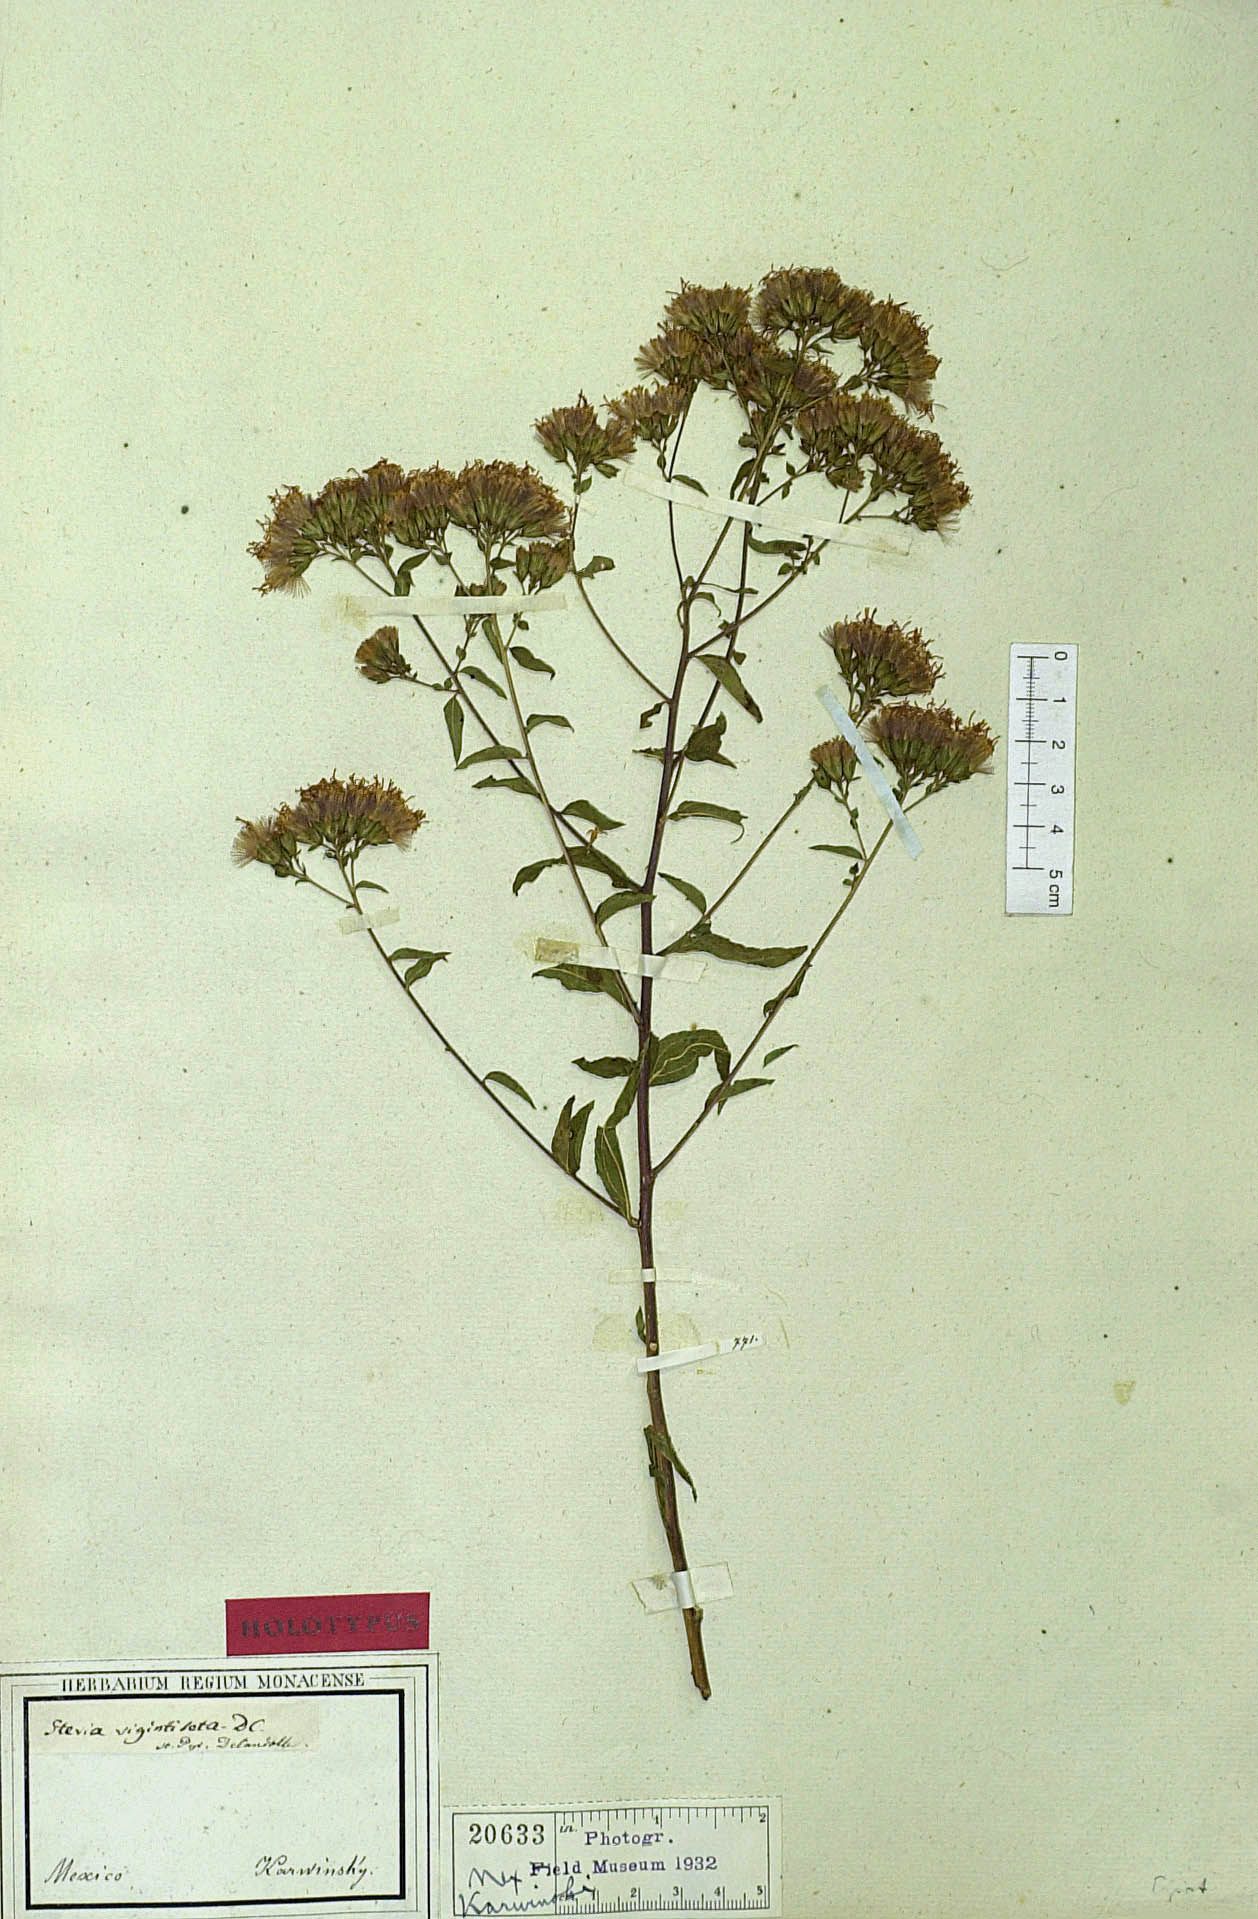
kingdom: Plantae
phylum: Tracheophyta
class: Magnoliopsida
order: Asterales
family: Asteraceae
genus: Steviopsis
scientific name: Steviopsis vigintiseta
